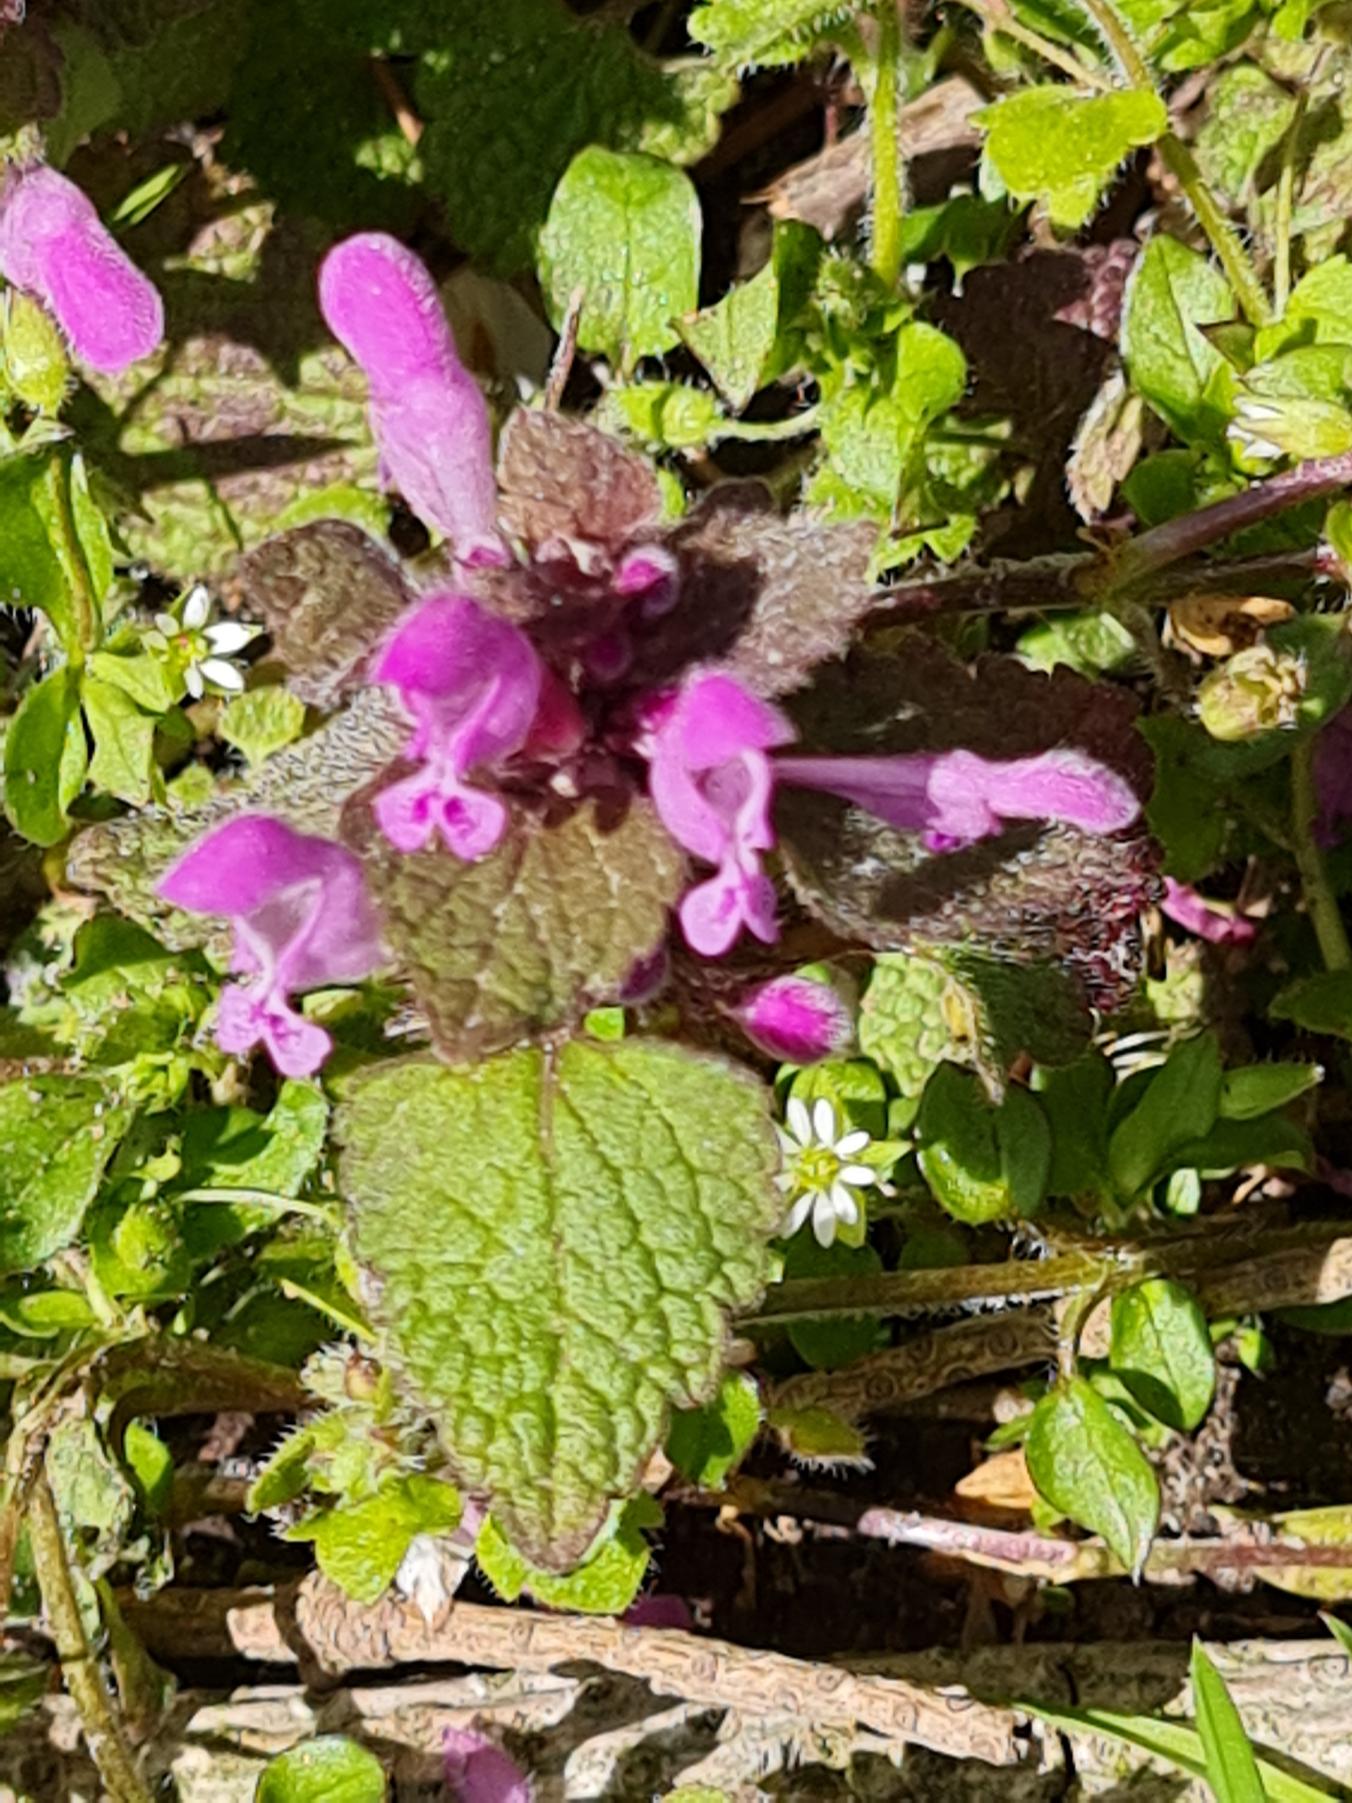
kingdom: Plantae
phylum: Tracheophyta
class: Magnoliopsida
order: Lamiales
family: Lamiaceae
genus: Lamium
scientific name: Lamium purpureum
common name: Rød tvetand
